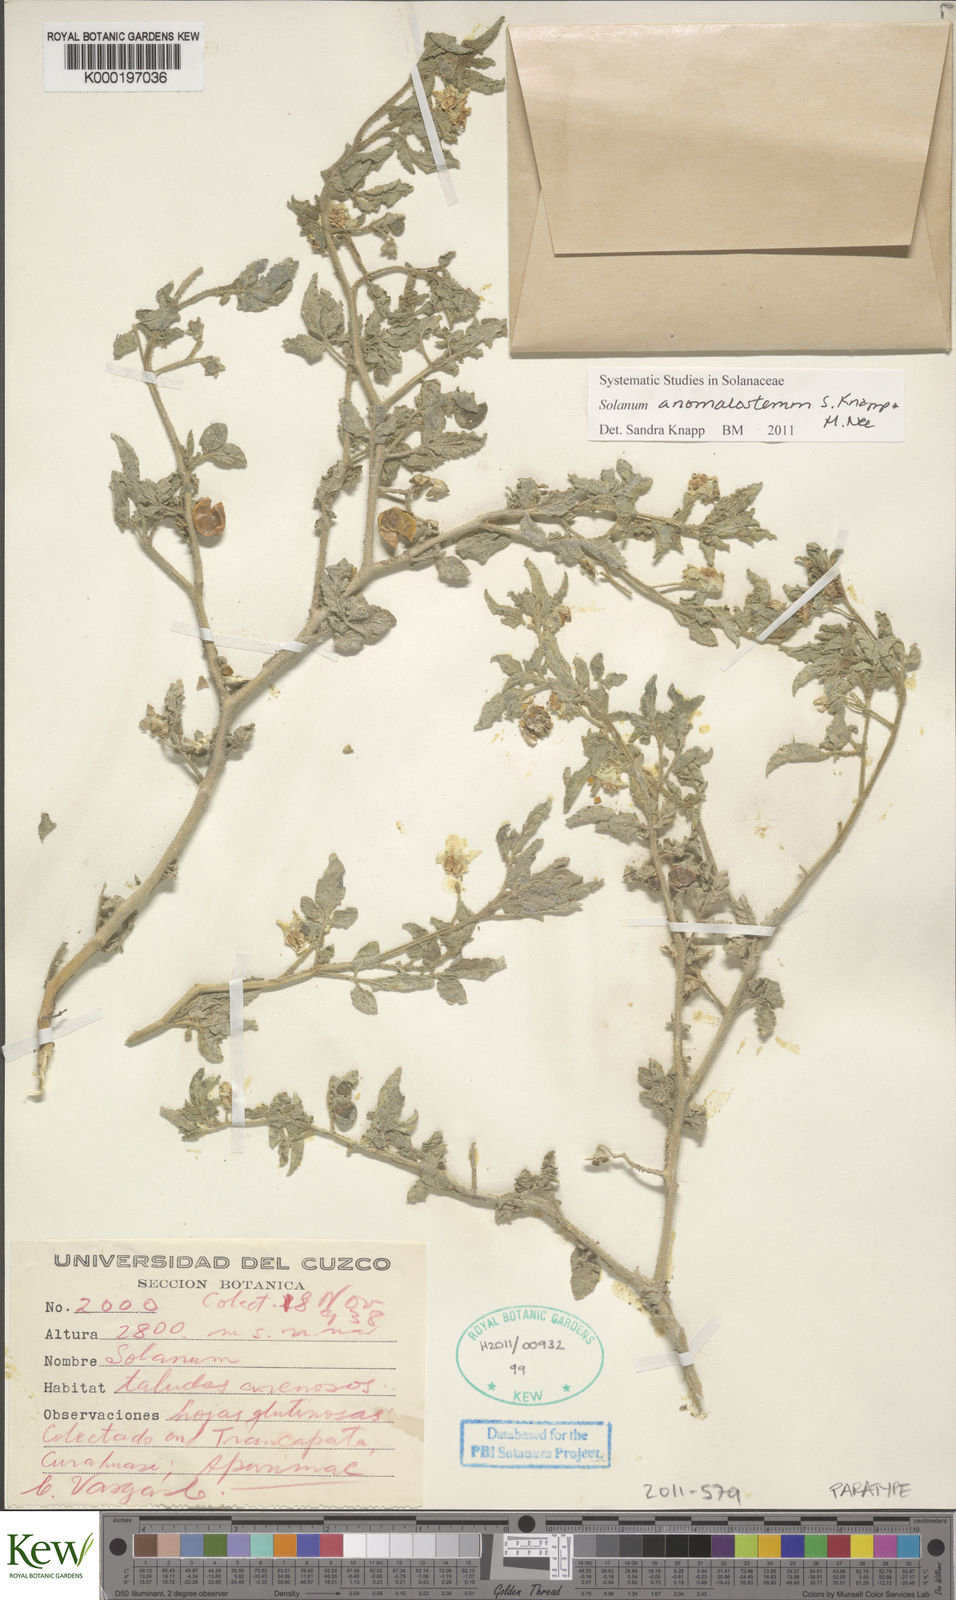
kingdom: Plantae
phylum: Tracheophyta
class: Magnoliopsida
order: Solanales
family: Solanaceae
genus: Solanum
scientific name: Solanum anomalostemon
